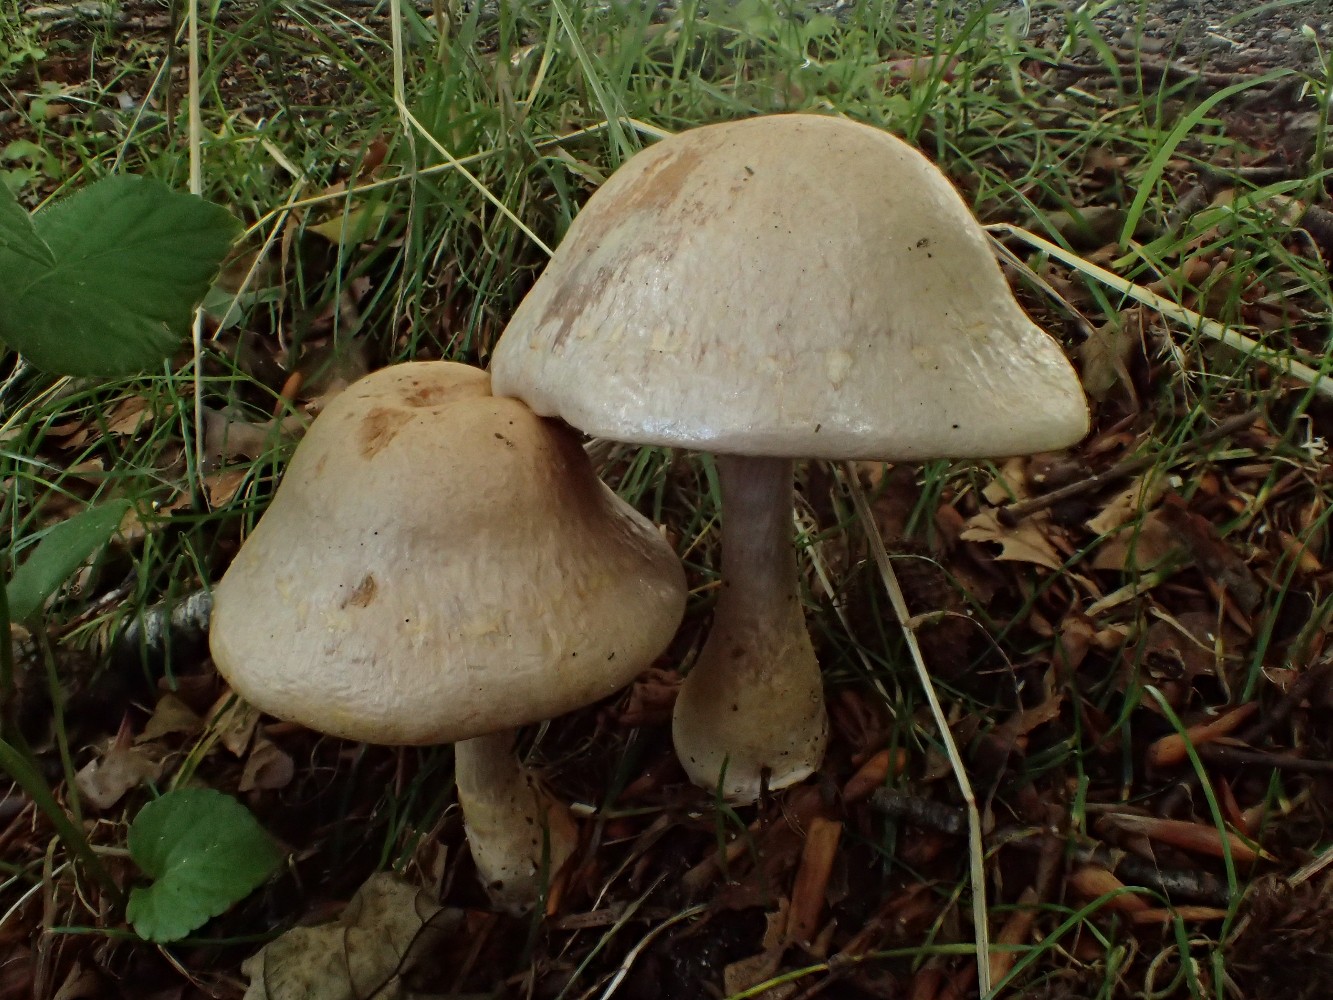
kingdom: Fungi
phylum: Basidiomycota
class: Agaricomycetes
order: Agaricales
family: Cortinariaceae
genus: Cortinarius
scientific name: Cortinarius
